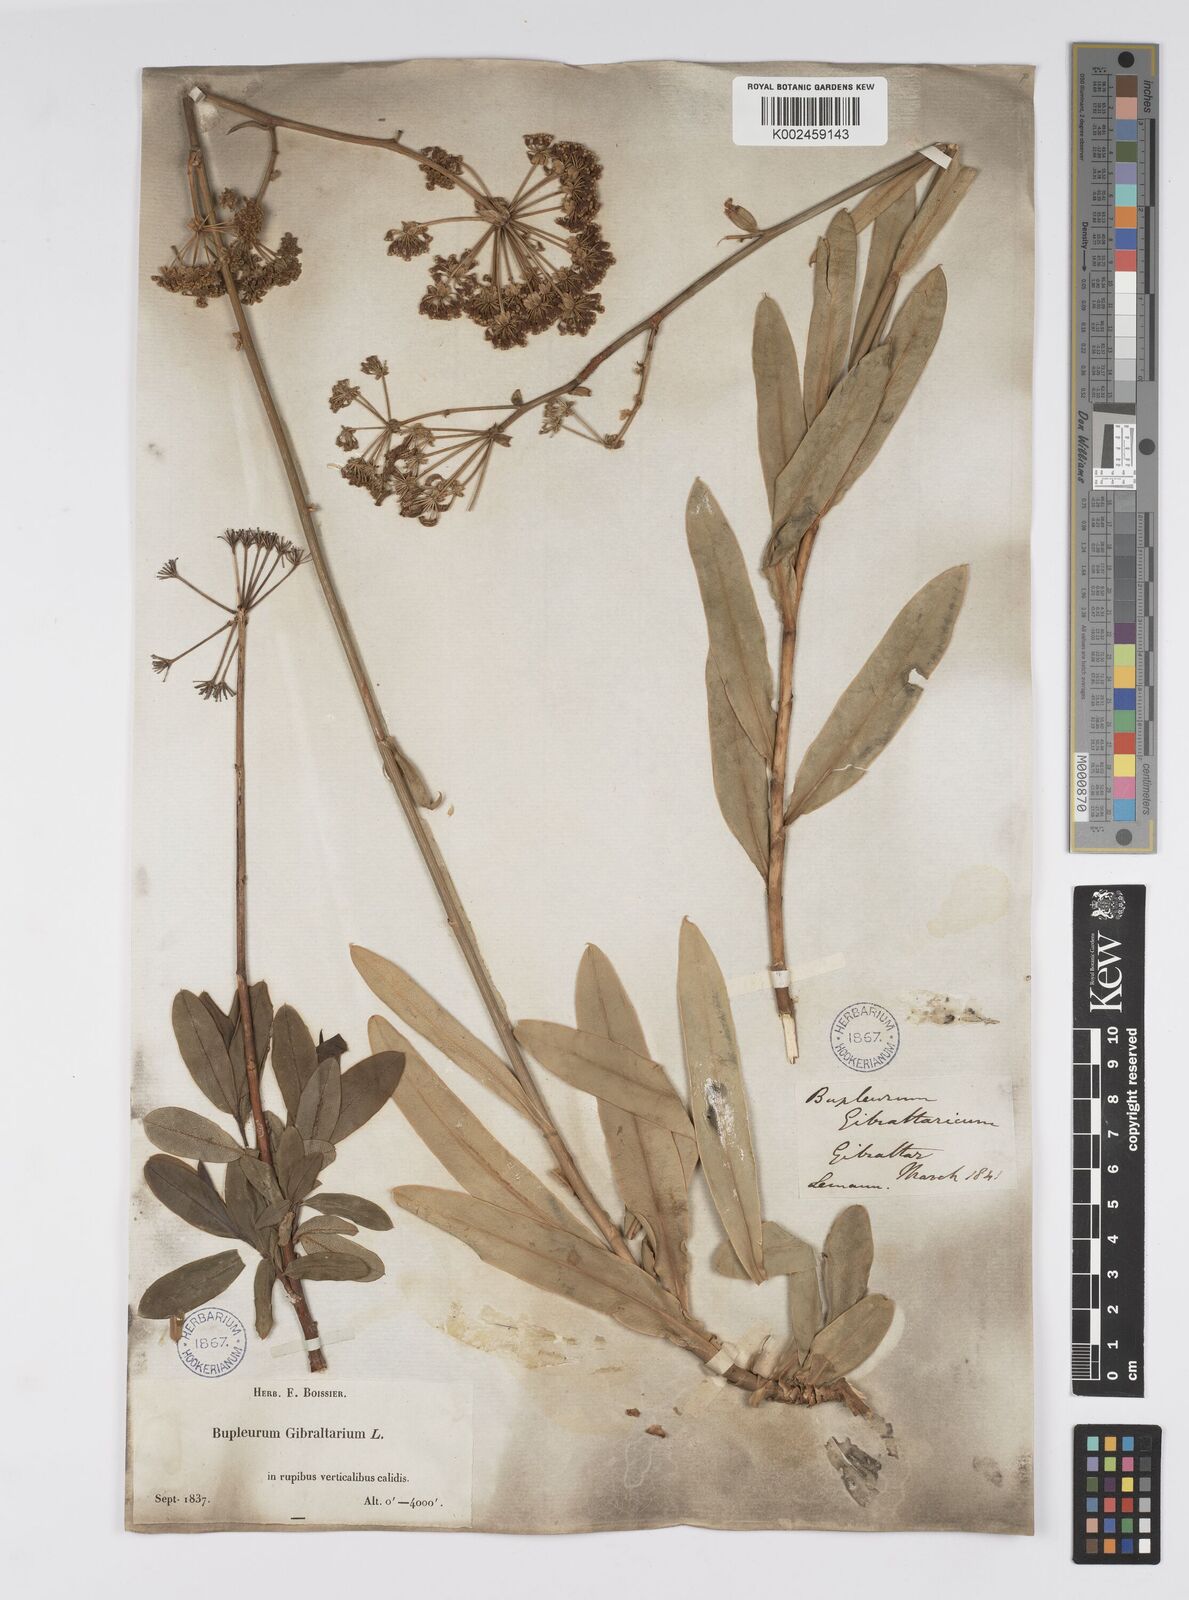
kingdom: Plantae
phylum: Tracheophyta
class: Magnoliopsida
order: Apiales
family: Apiaceae
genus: Bupleurum
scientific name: Bupleurum gibraltaricum
